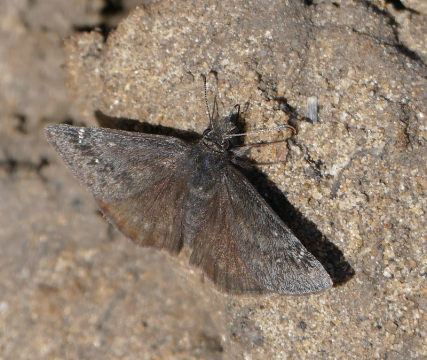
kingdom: Animalia
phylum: Arthropoda
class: Insecta
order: Lepidoptera
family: Hesperiidae
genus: Gesta
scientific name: Gesta
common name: Persius Duskywing
